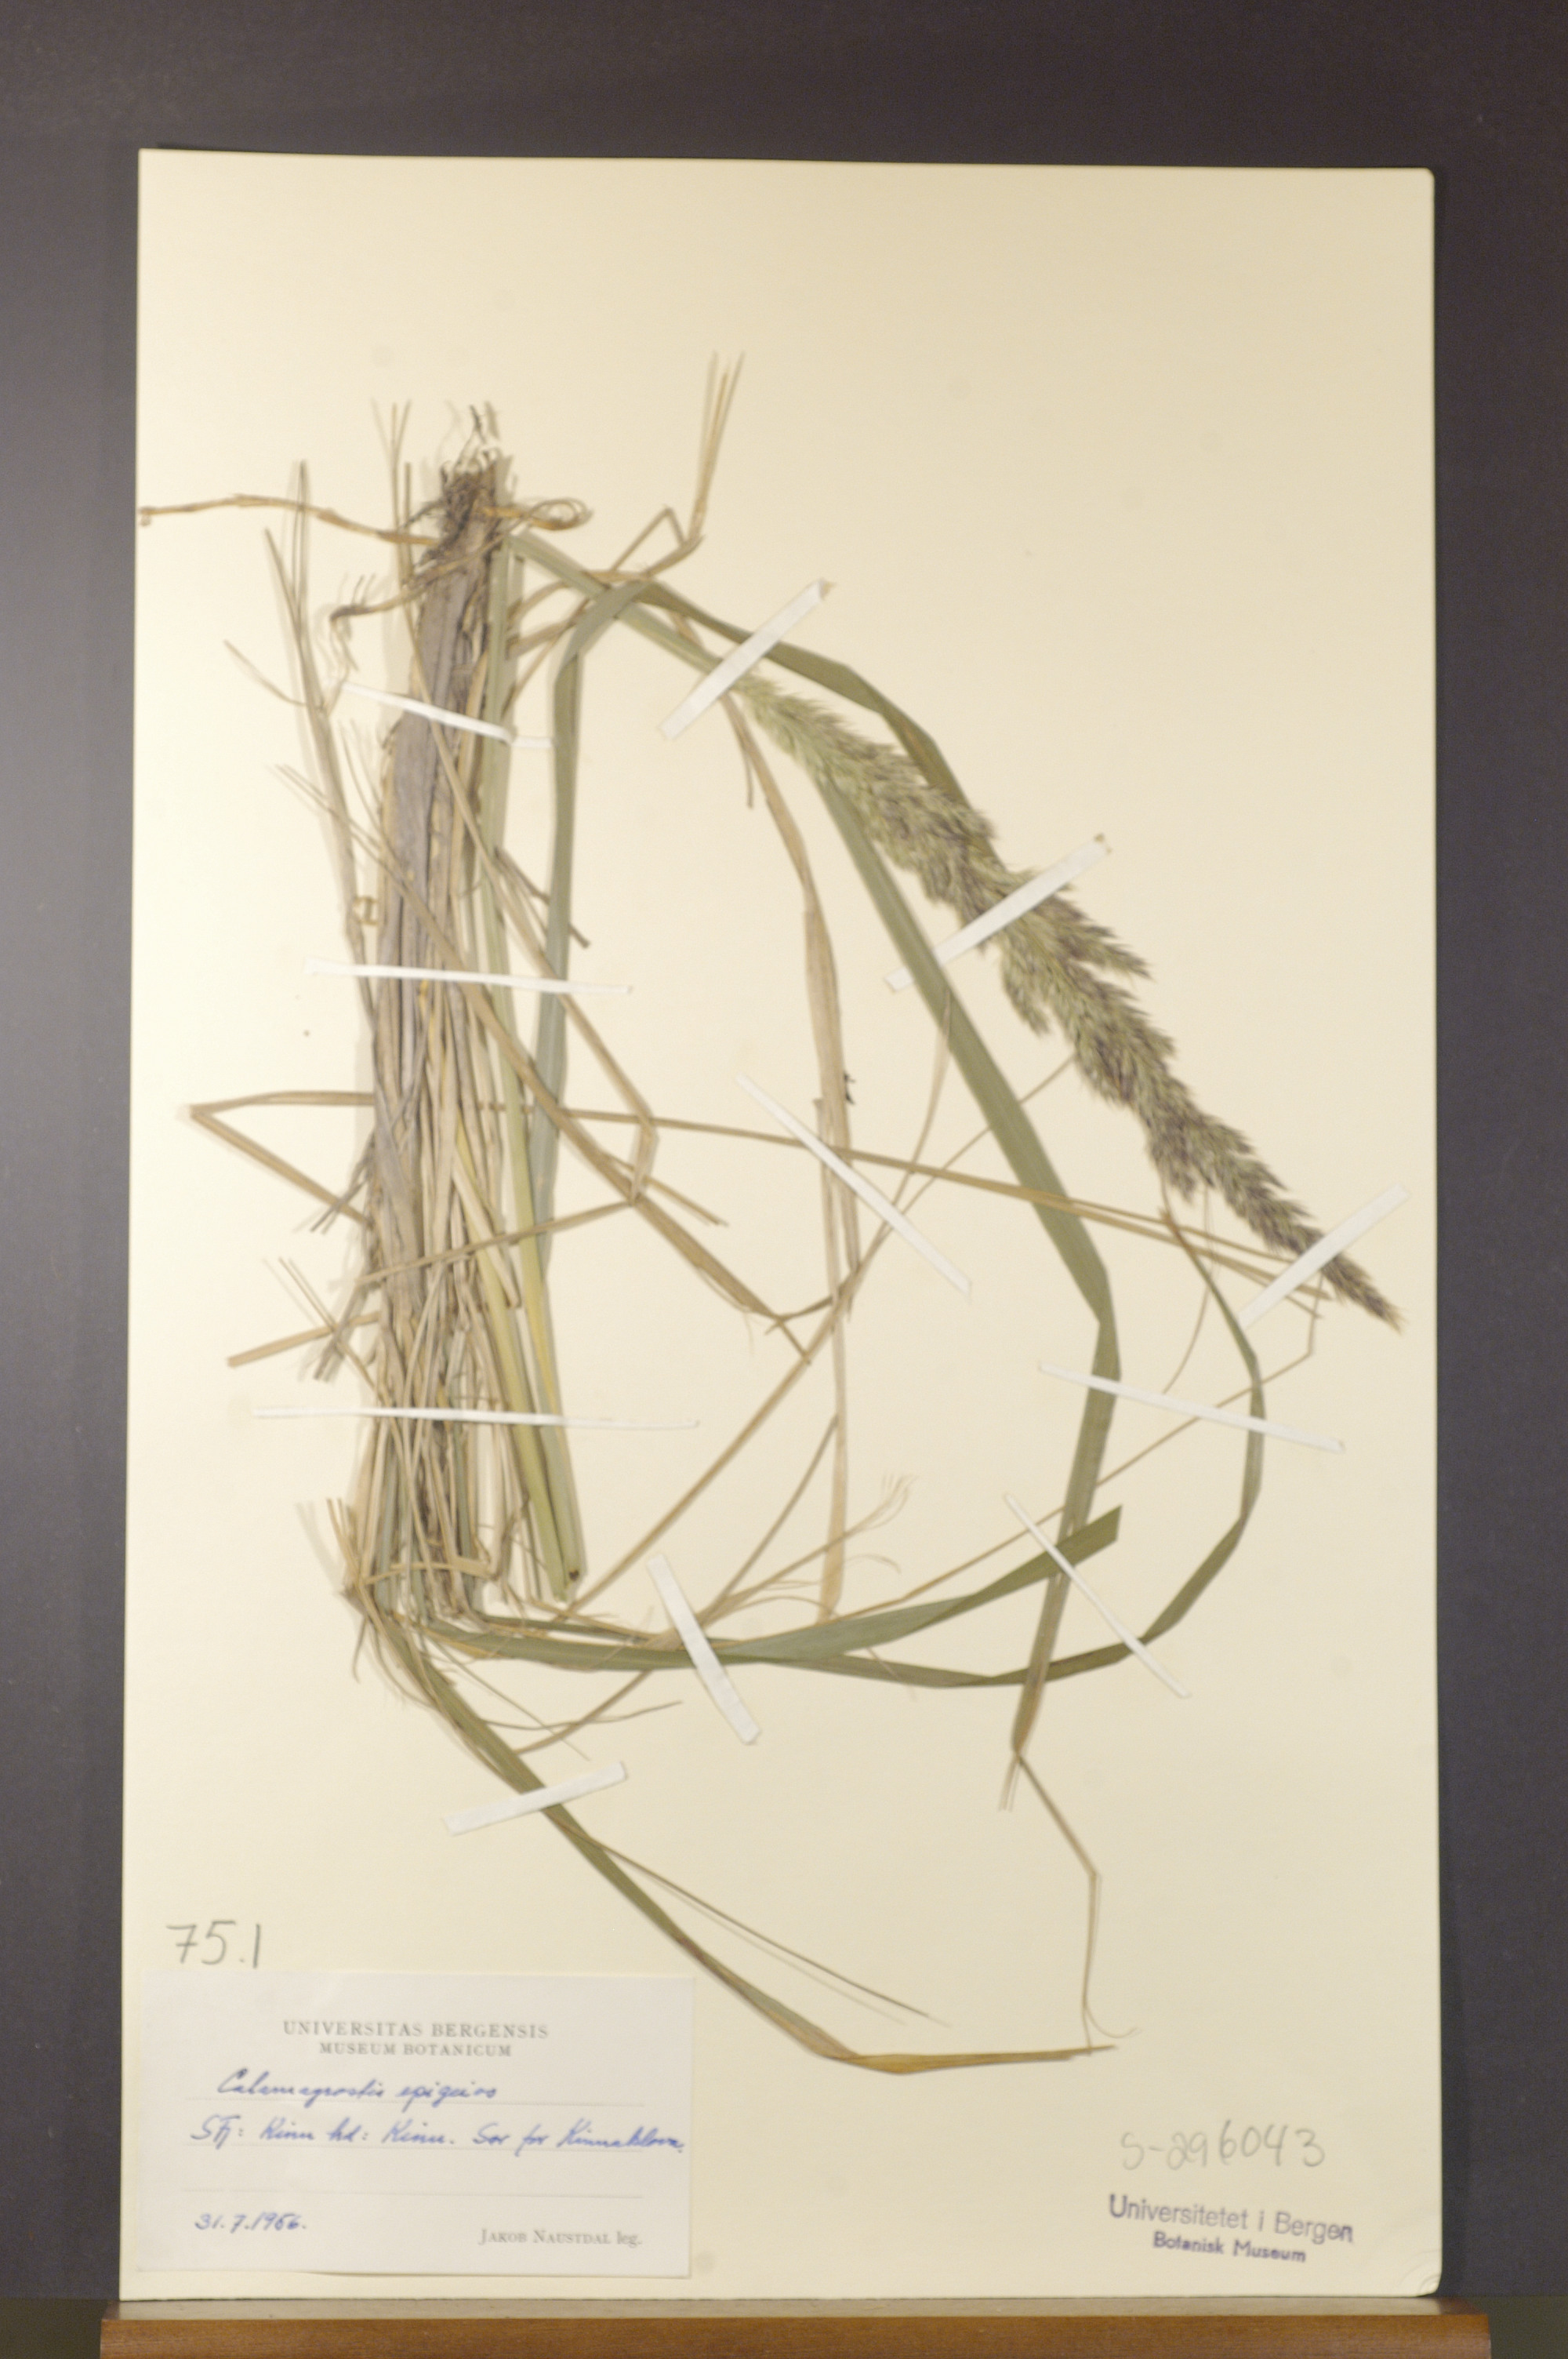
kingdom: Plantae
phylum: Tracheophyta
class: Liliopsida
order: Poales
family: Poaceae
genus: Calamagrostis
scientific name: Calamagrostis epigejos
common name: Wood small-reed
